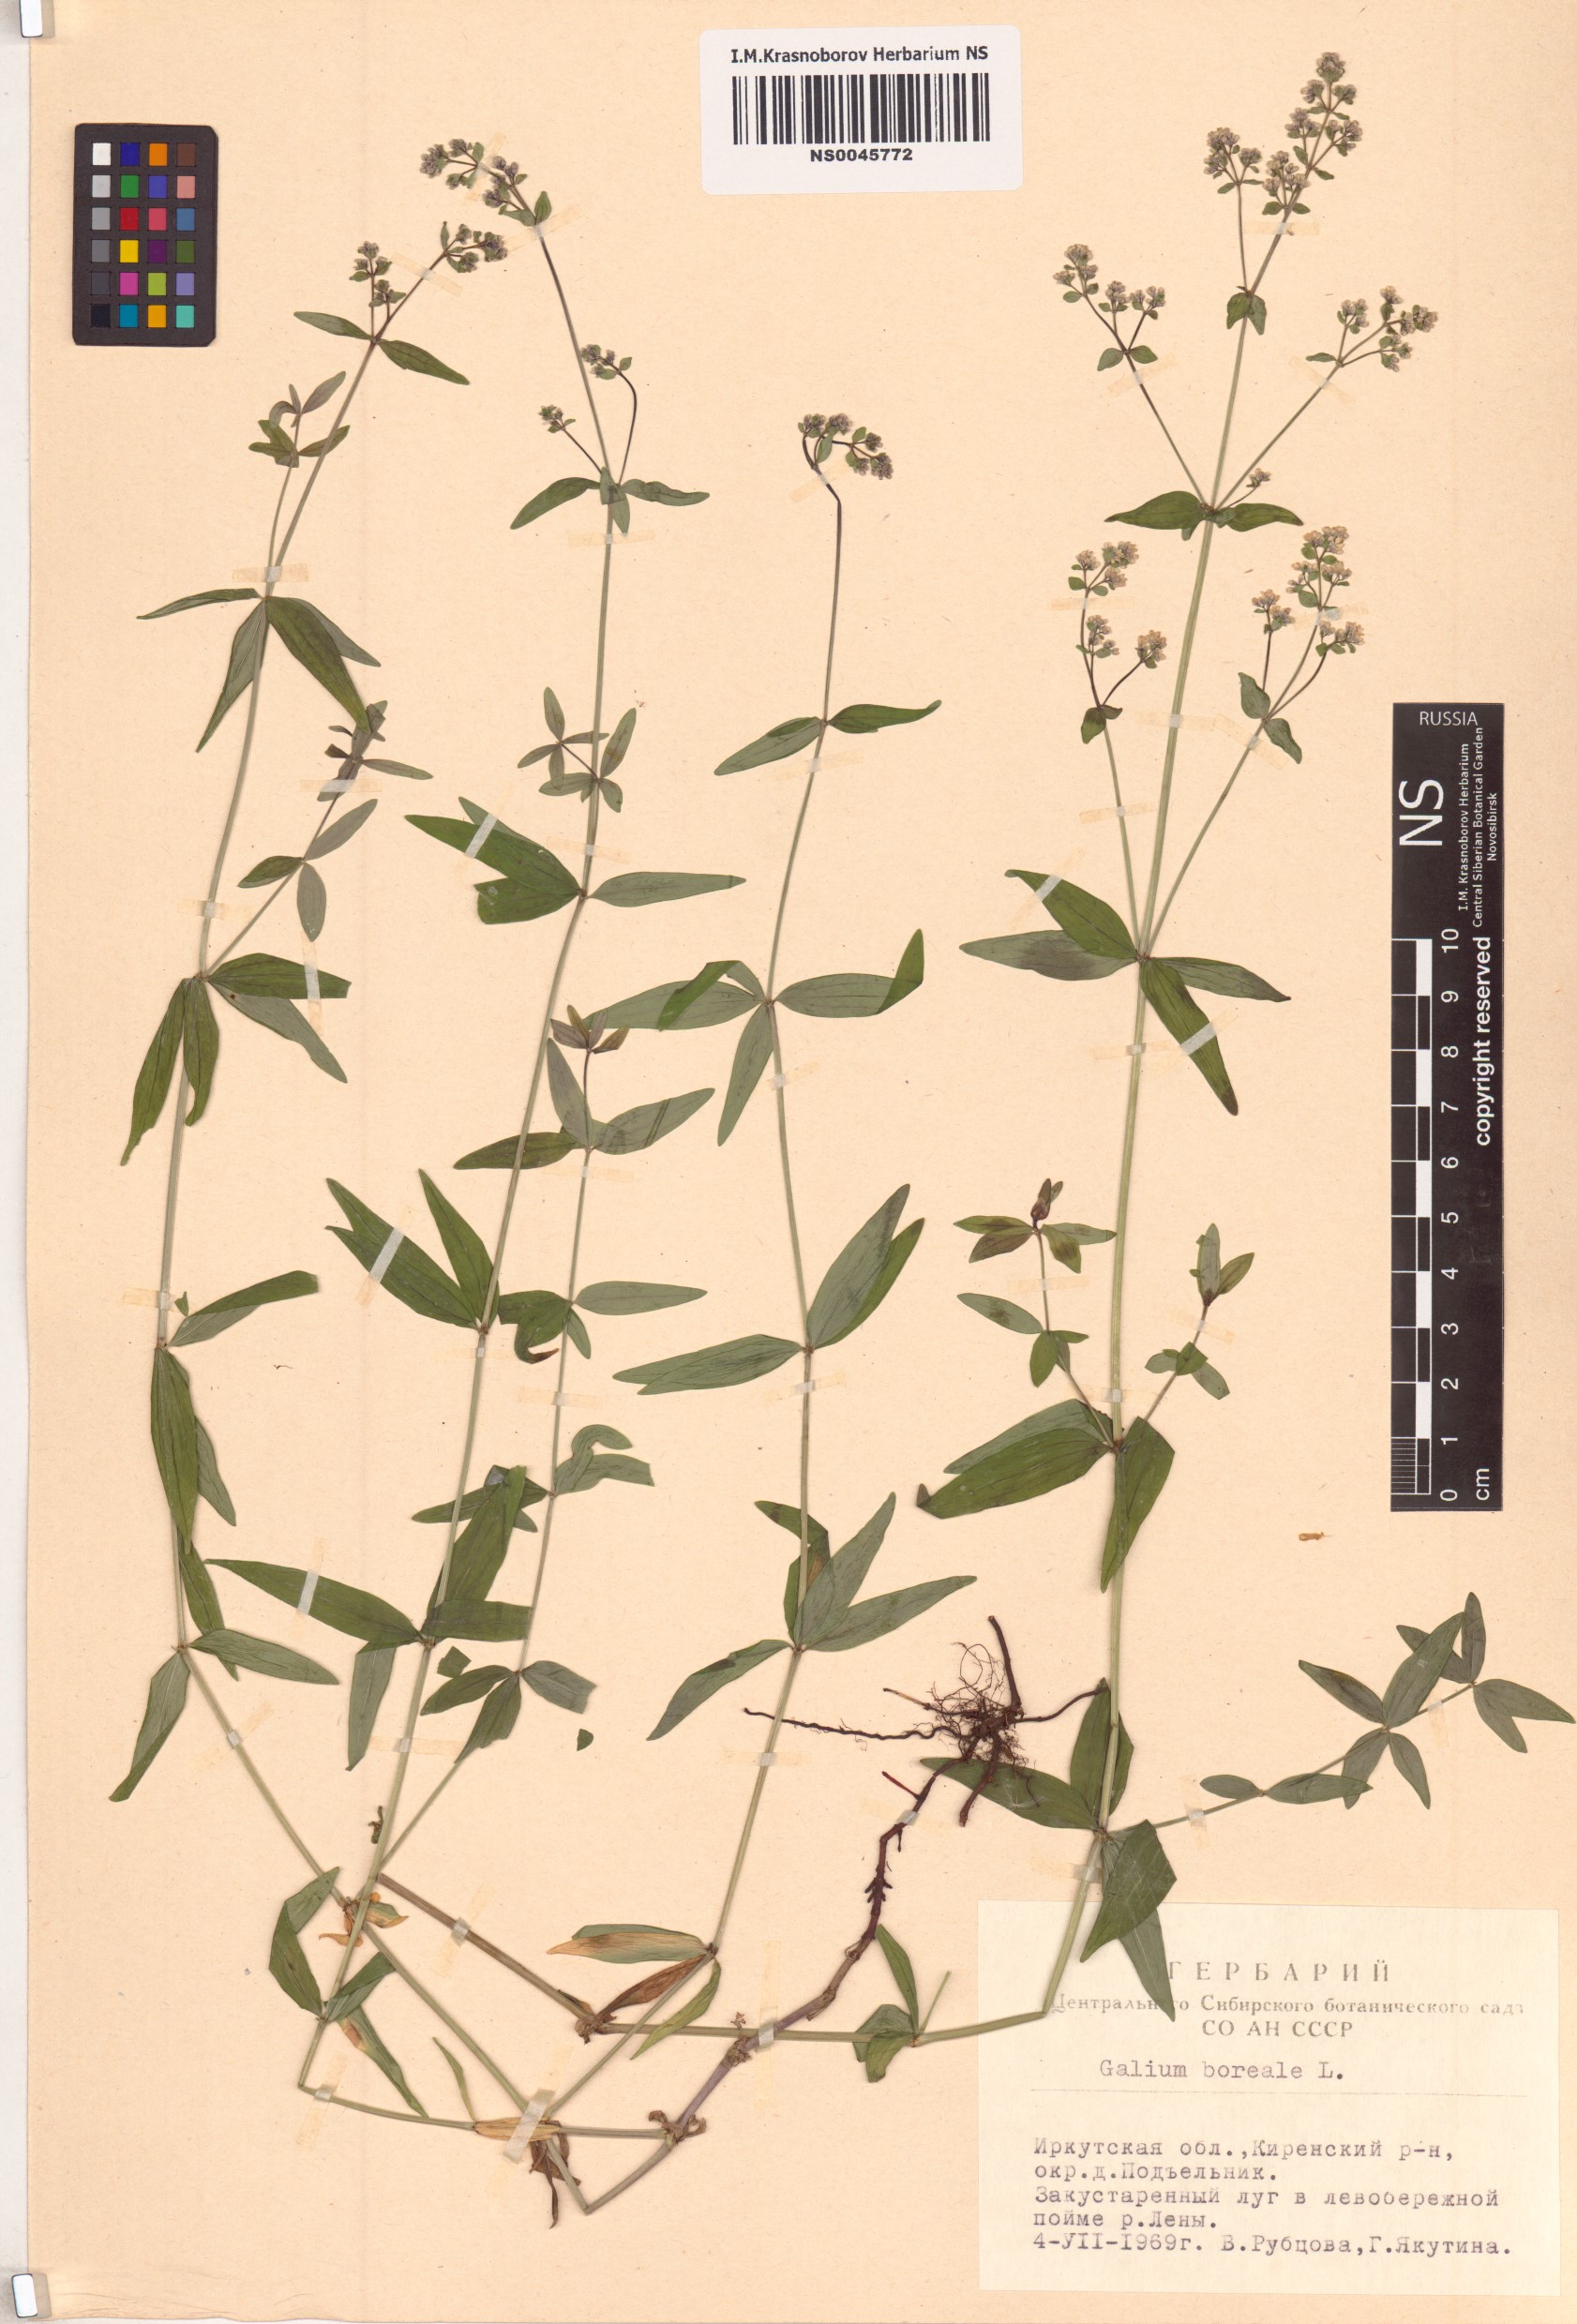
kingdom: Plantae
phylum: Tracheophyta
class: Magnoliopsida
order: Gentianales
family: Rubiaceae
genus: Galium
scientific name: Galium boreale
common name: Northern bedstraw
